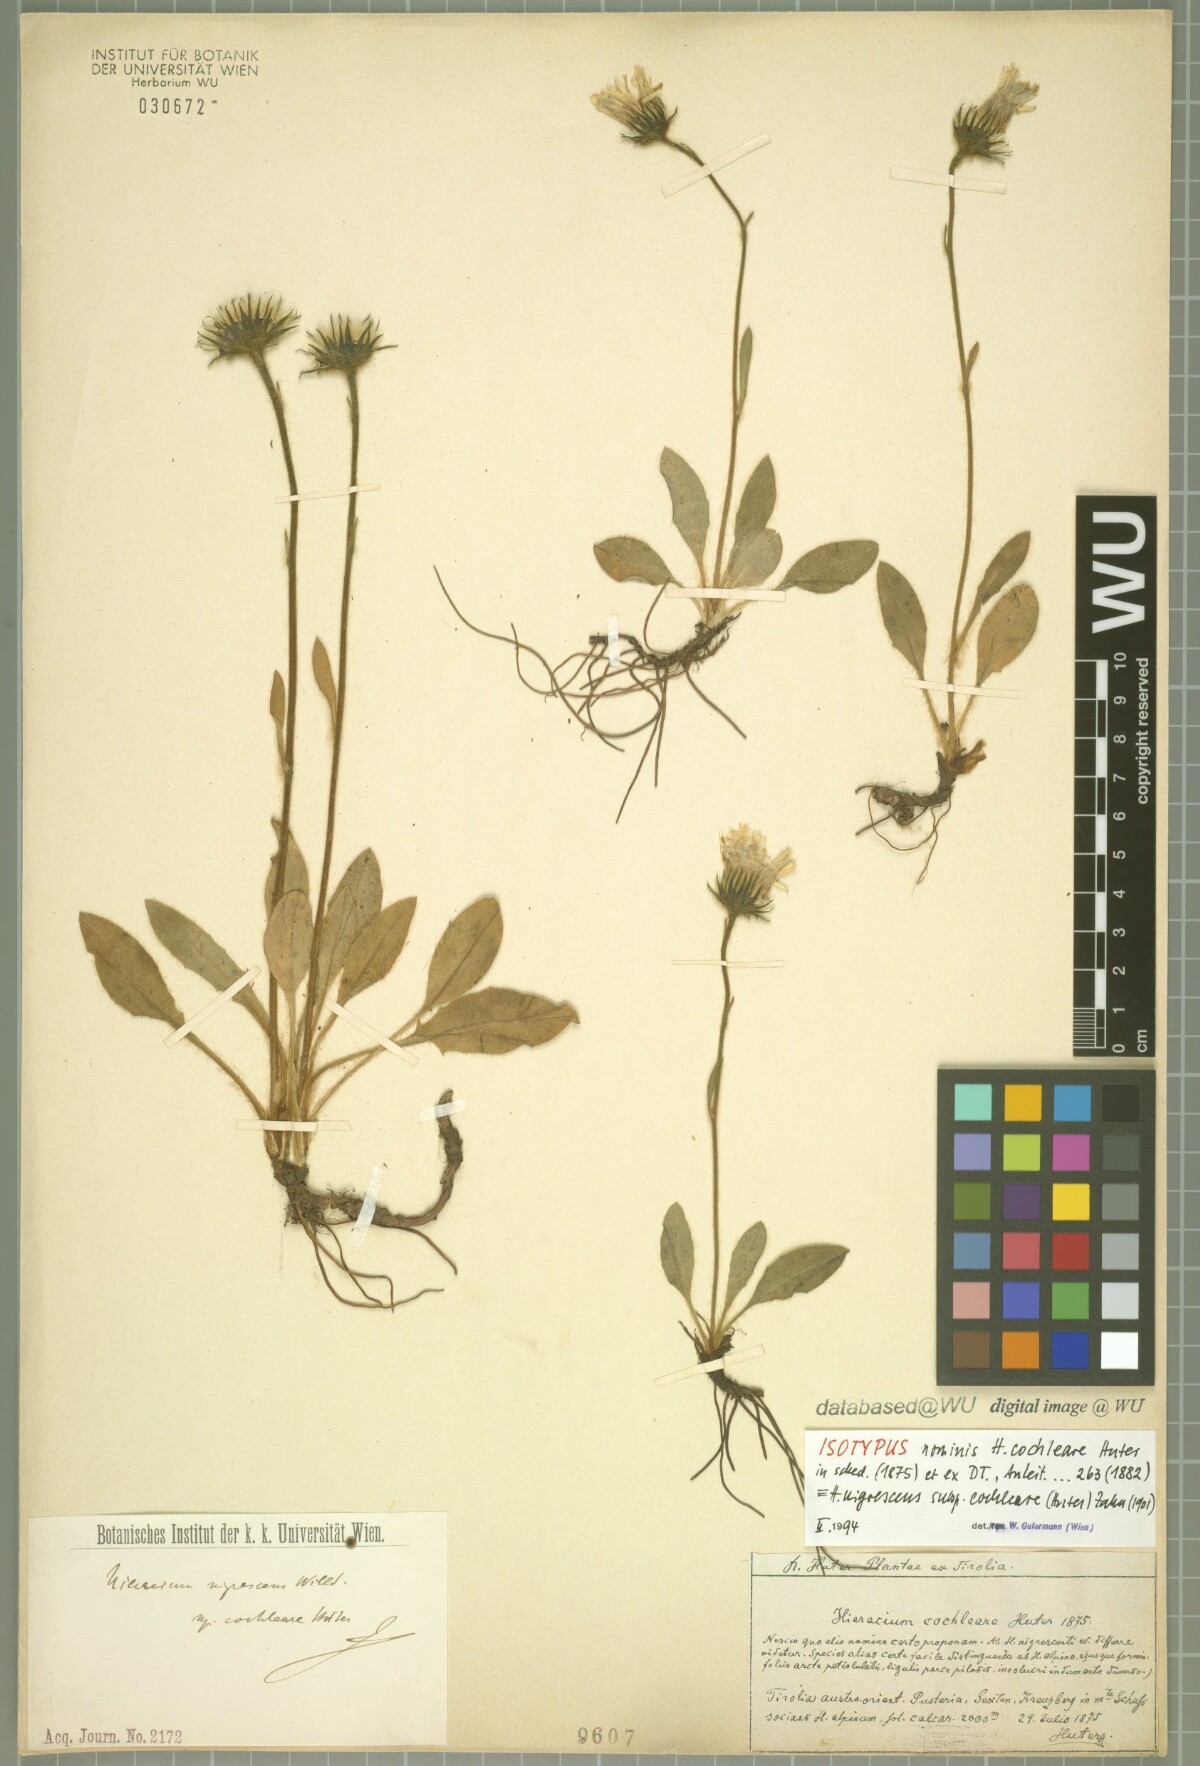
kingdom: Plantae
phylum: Tracheophyta
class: Magnoliopsida
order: Asterales
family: Asteraceae
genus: Hieracium
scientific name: Hieracium nigrescens
